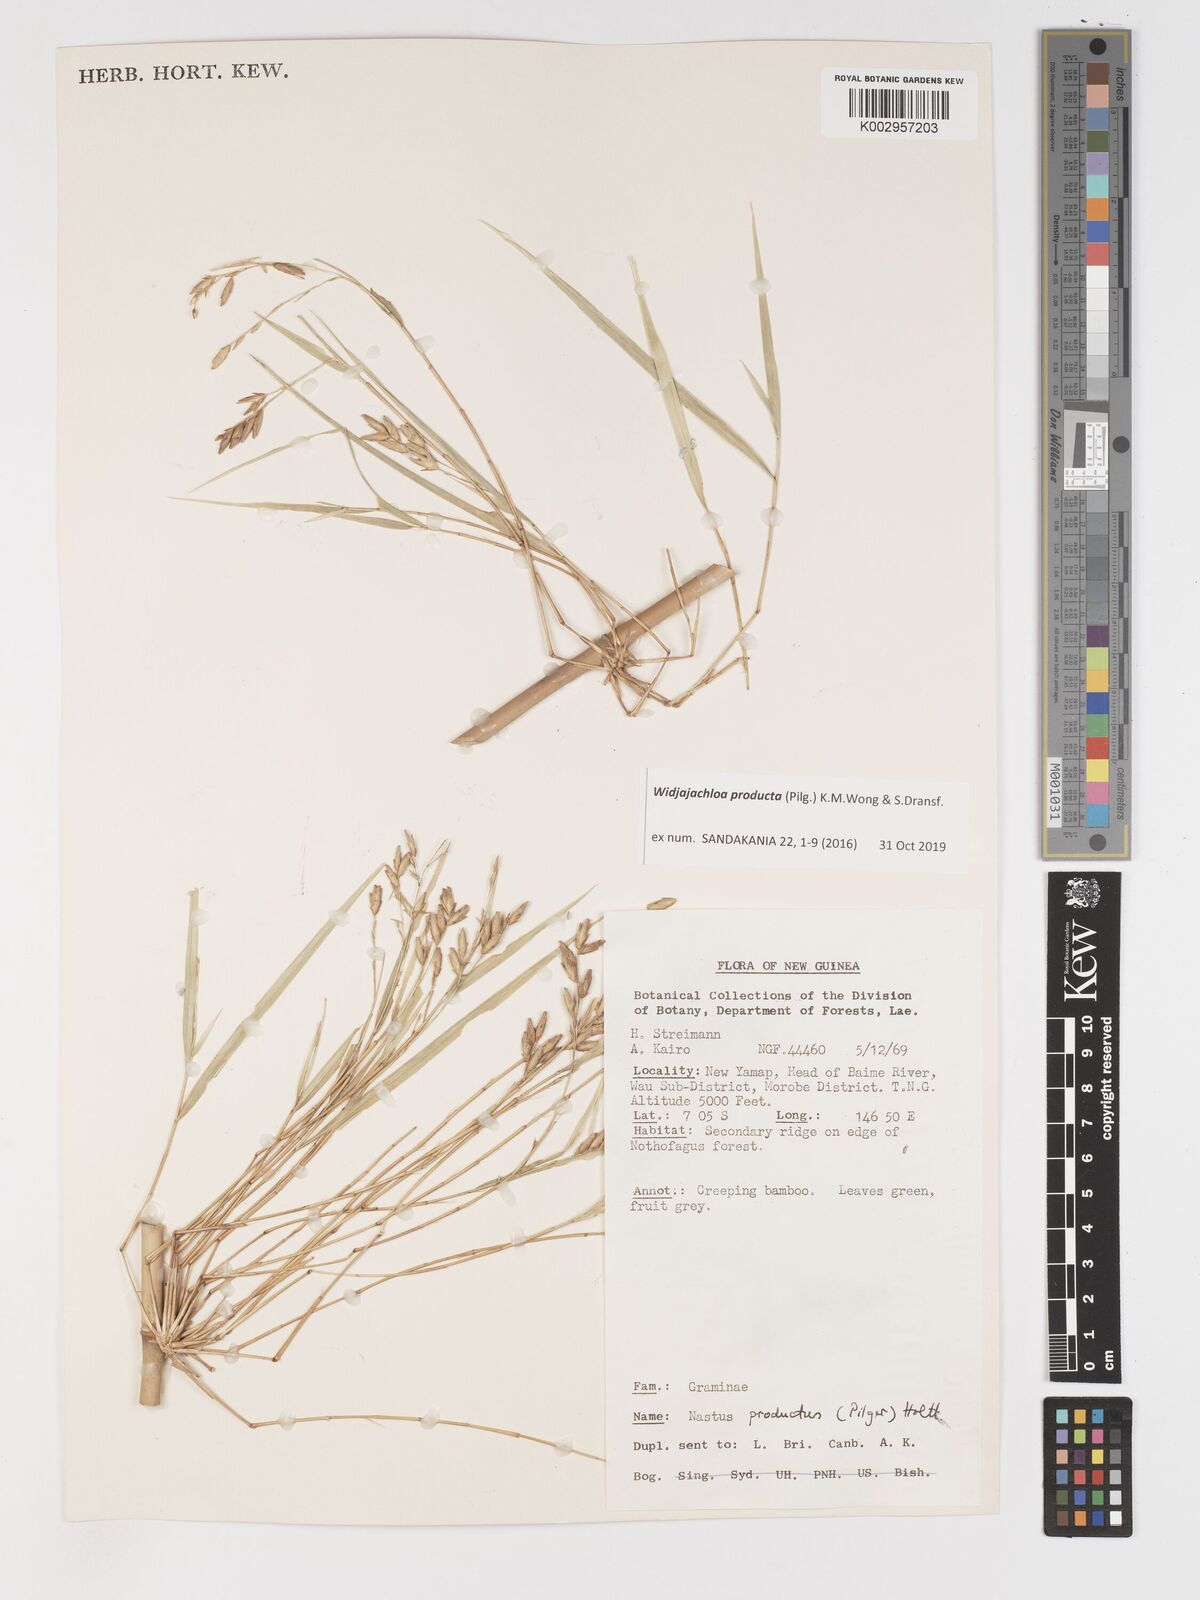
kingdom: Plantae
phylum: Tracheophyta
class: Liliopsida
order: Poales
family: Poaceae
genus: Widjajachloa
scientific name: Widjajachloa
